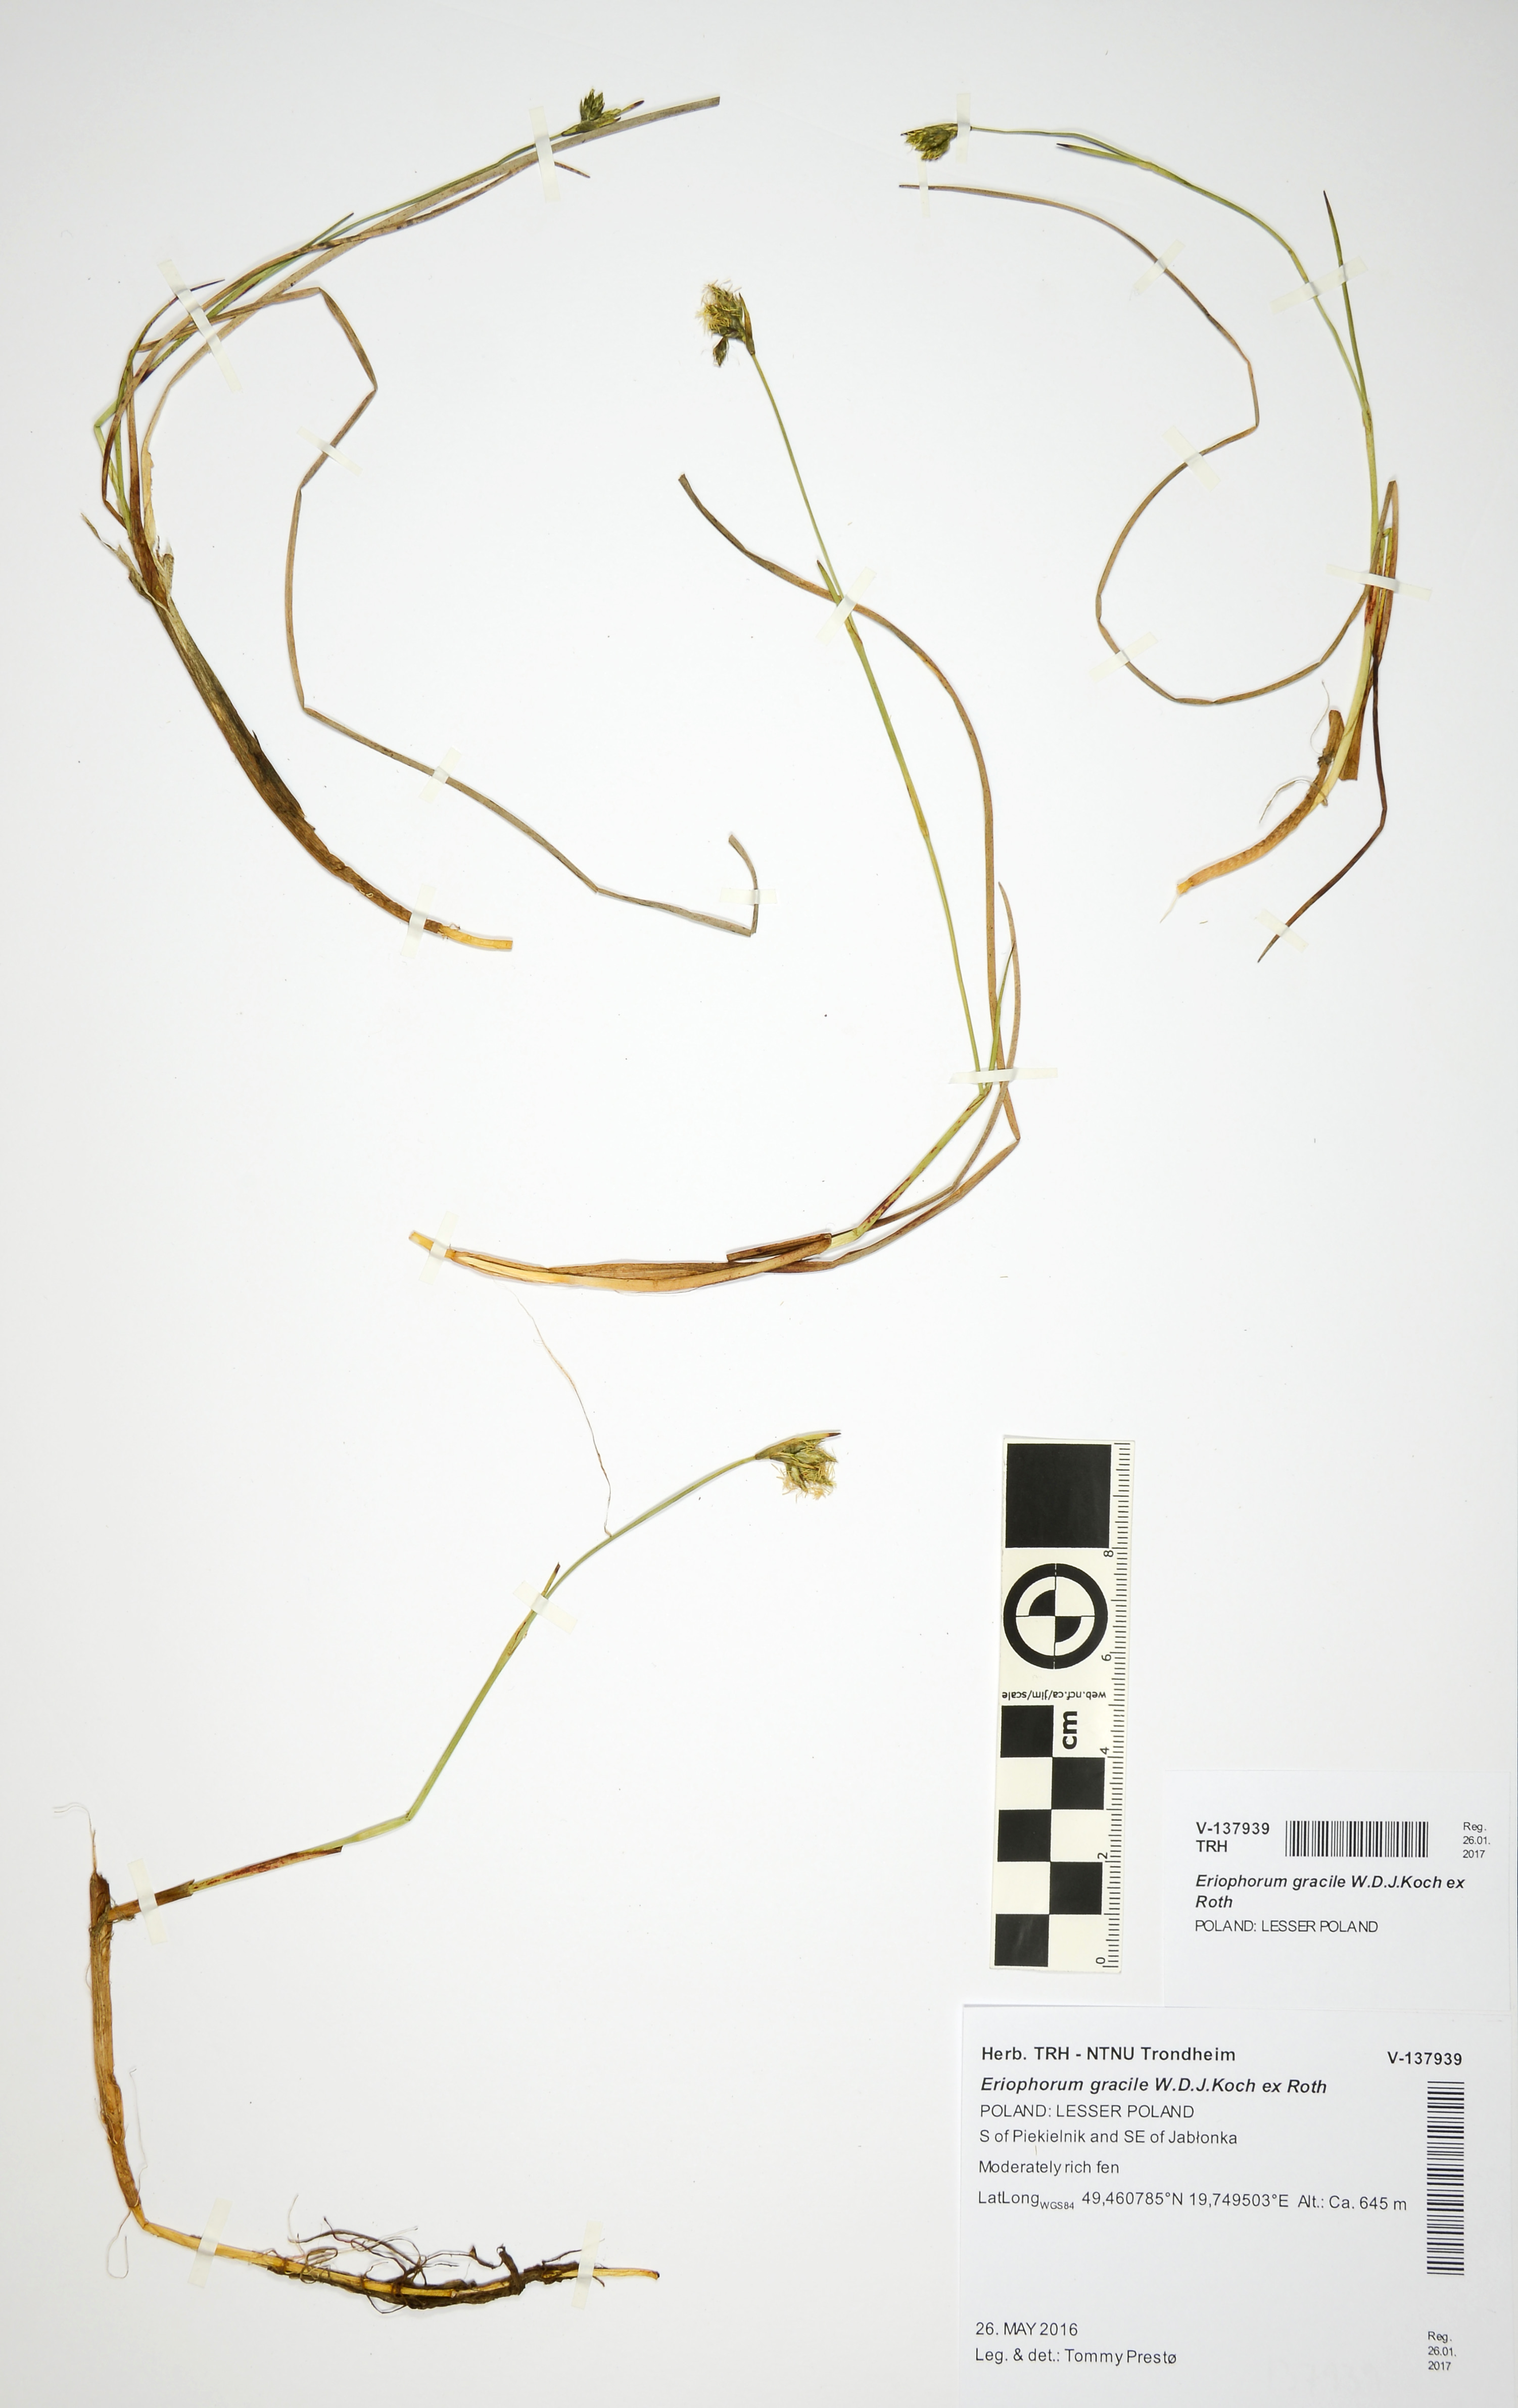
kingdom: Plantae
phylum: Tracheophyta
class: Liliopsida
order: Poales
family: Cyperaceae
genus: Eriophorum
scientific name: Eriophorum gracile
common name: Slender cottongrass
